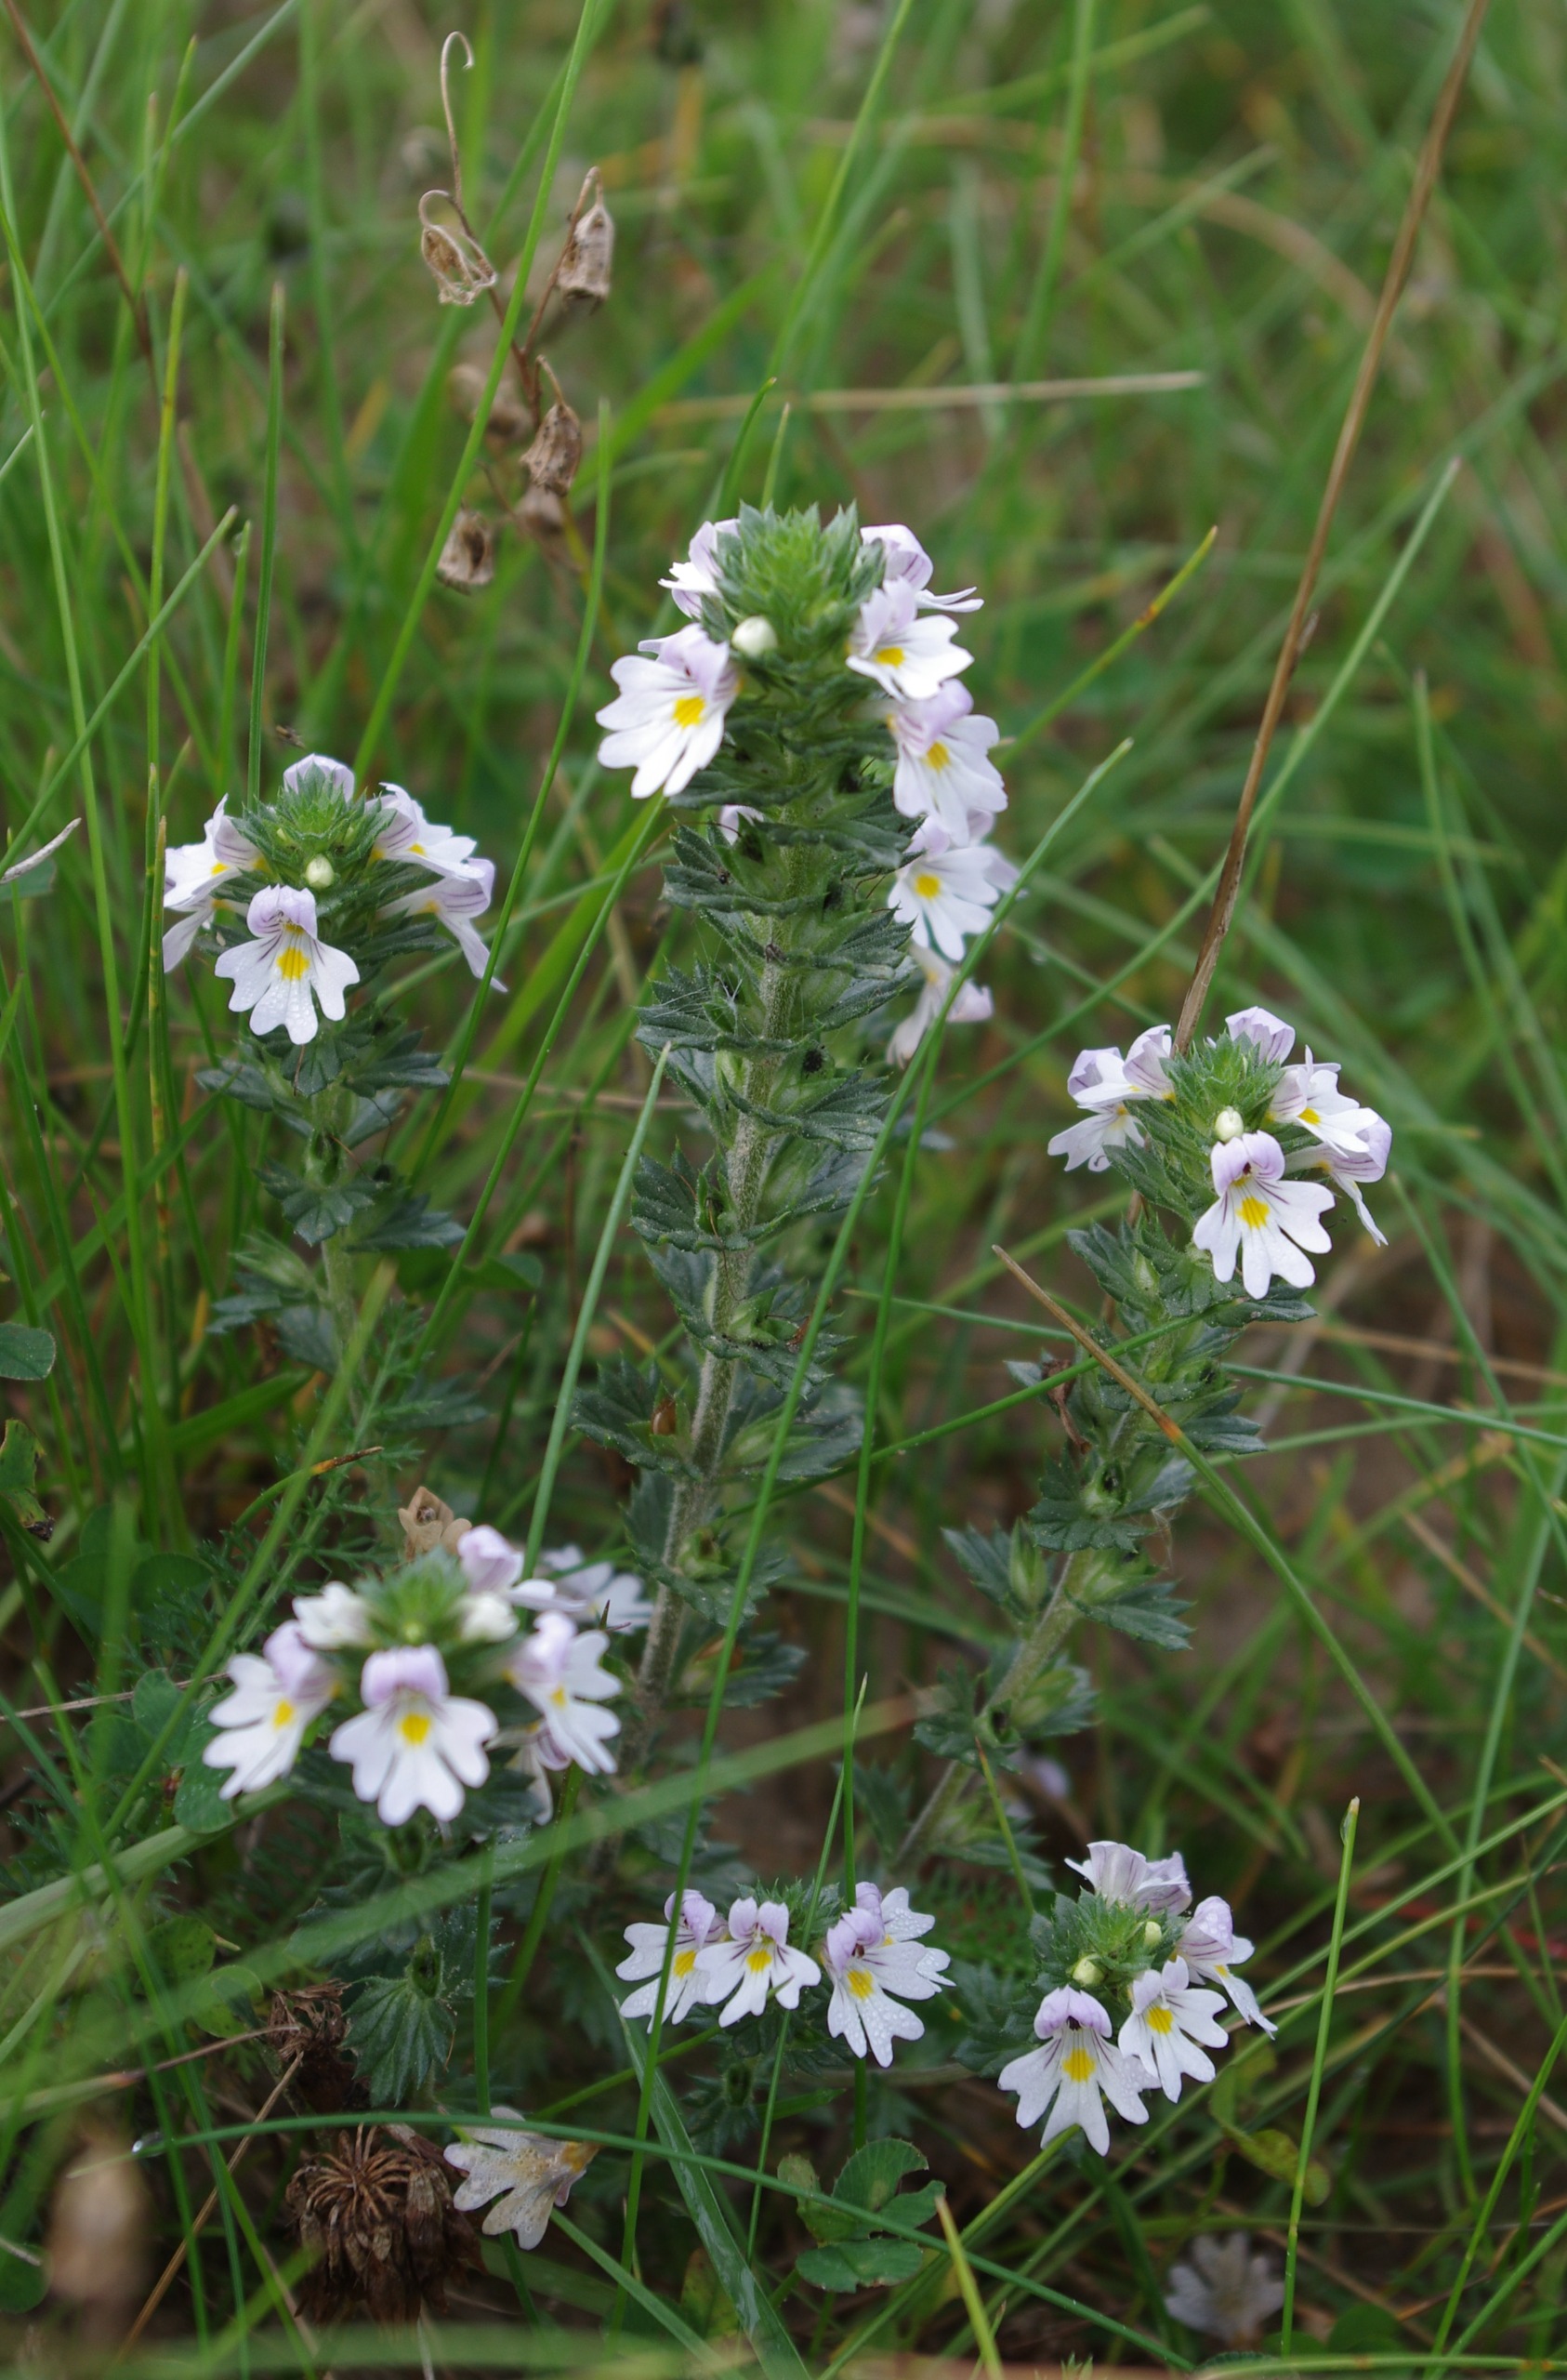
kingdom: Plantae
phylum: Tracheophyta
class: Magnoliopsida
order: Lamiales
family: Orobanchaceae
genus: Euphrasia
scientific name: Euphrasia vernalis
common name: Kirtel-øjentrøst
